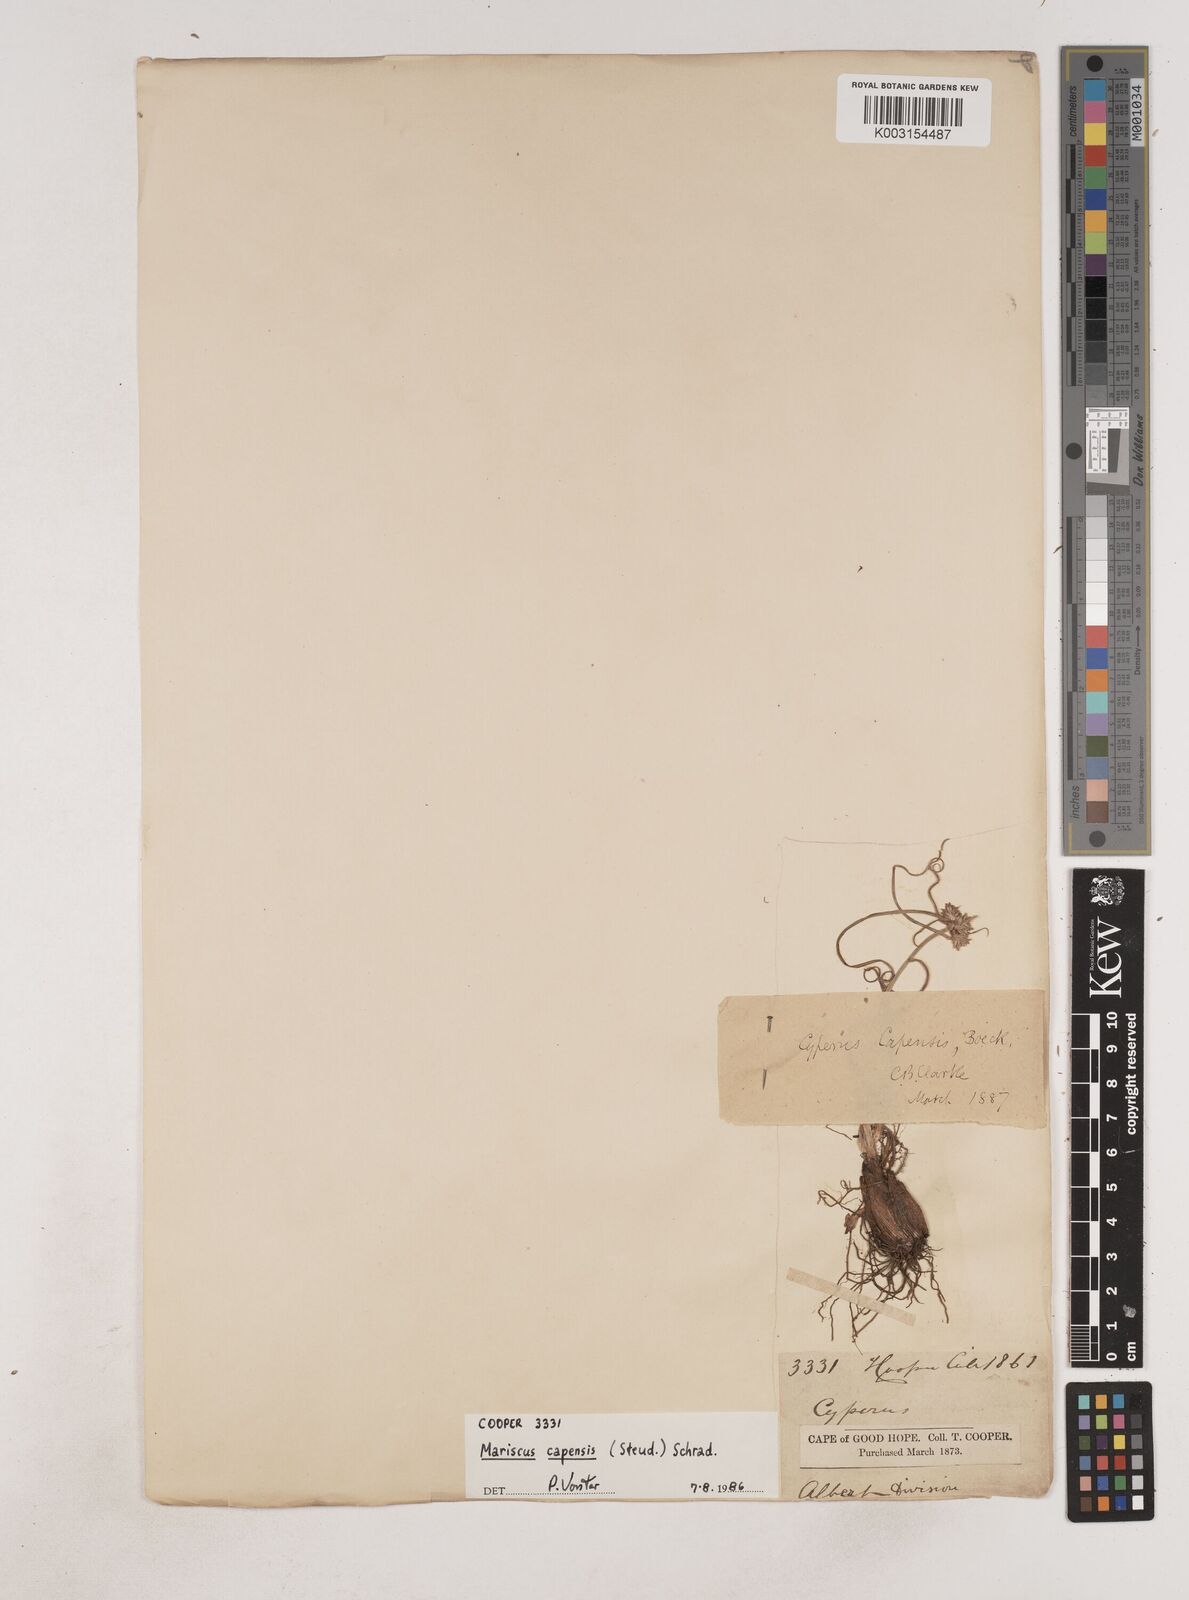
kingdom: Plantae
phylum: Tracheophyta
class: Liliopsida
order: Poales
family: Cyperaceae
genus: Cyperus
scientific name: Cyperus capensis
